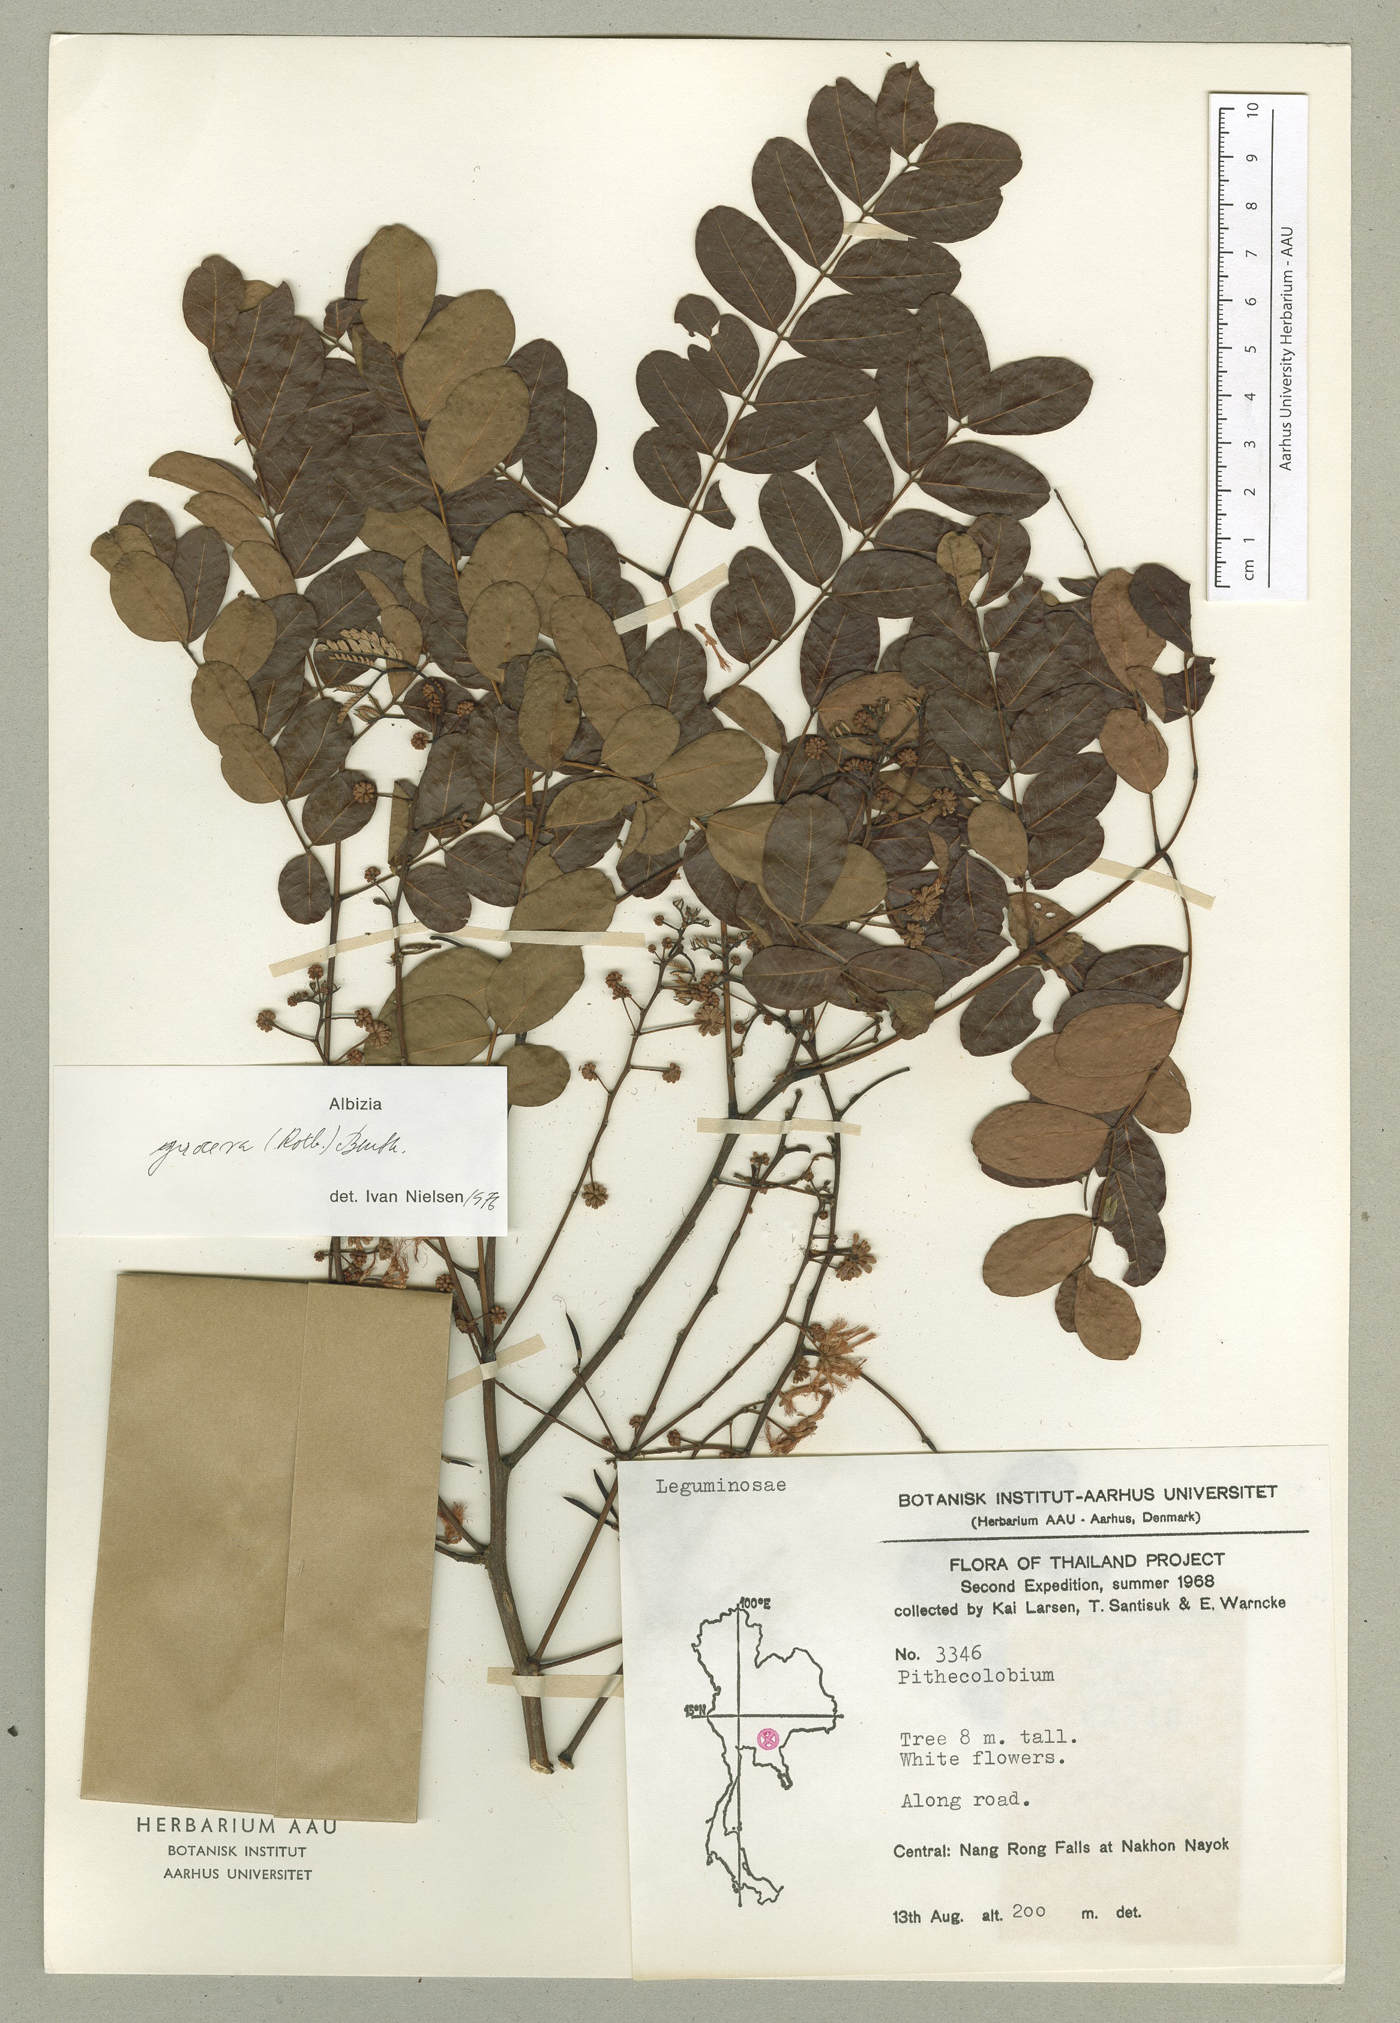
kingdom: Plantae
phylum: Tracheophyta
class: Magnoliopsida
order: Fabales
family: Fabaceae
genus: Albizia
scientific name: Albizia procera
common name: Tall albizia
